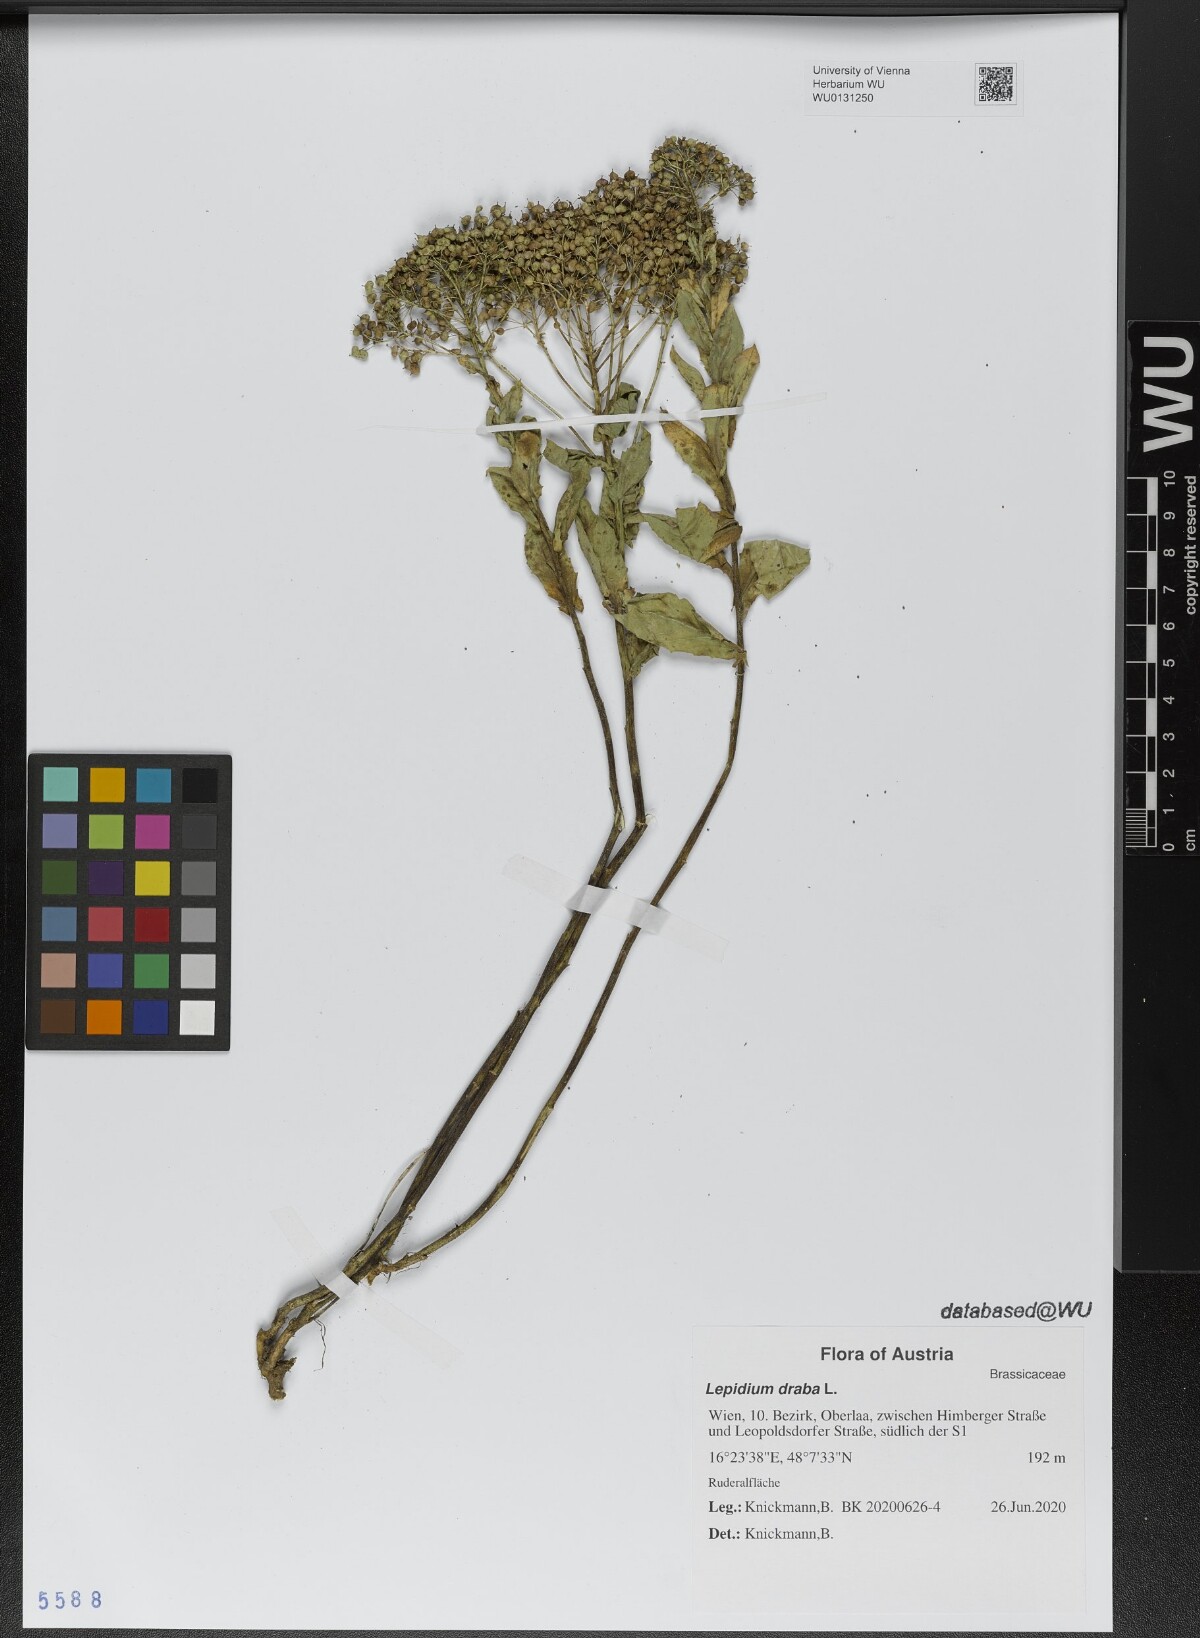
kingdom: Plantae
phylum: Tracheophyta
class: Magnoliopsida
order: Brassicales
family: Brassicaceae
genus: Lepidium
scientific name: Lepidium draba
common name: Hoary cress
